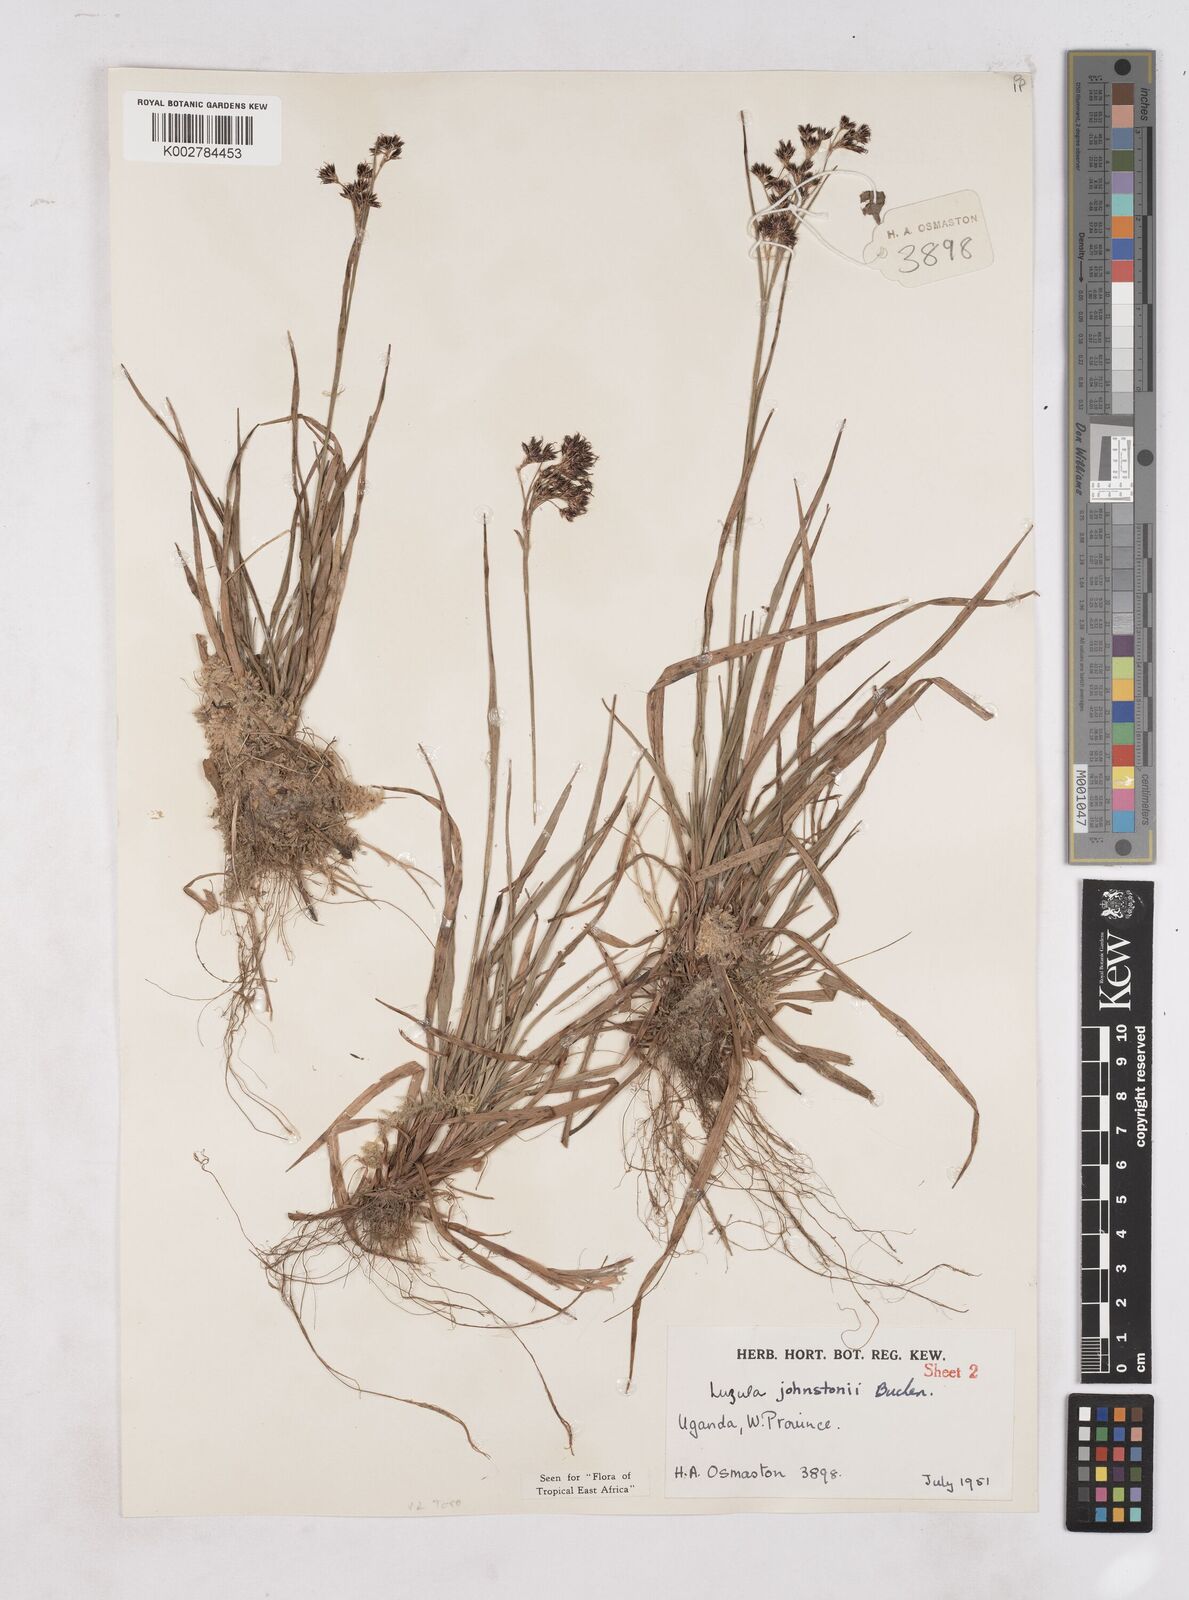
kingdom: Plantae
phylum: Tracheophyta
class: Liliopsida
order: Poales
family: Juncaceae
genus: Luzula
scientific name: Luzula johnstonii
